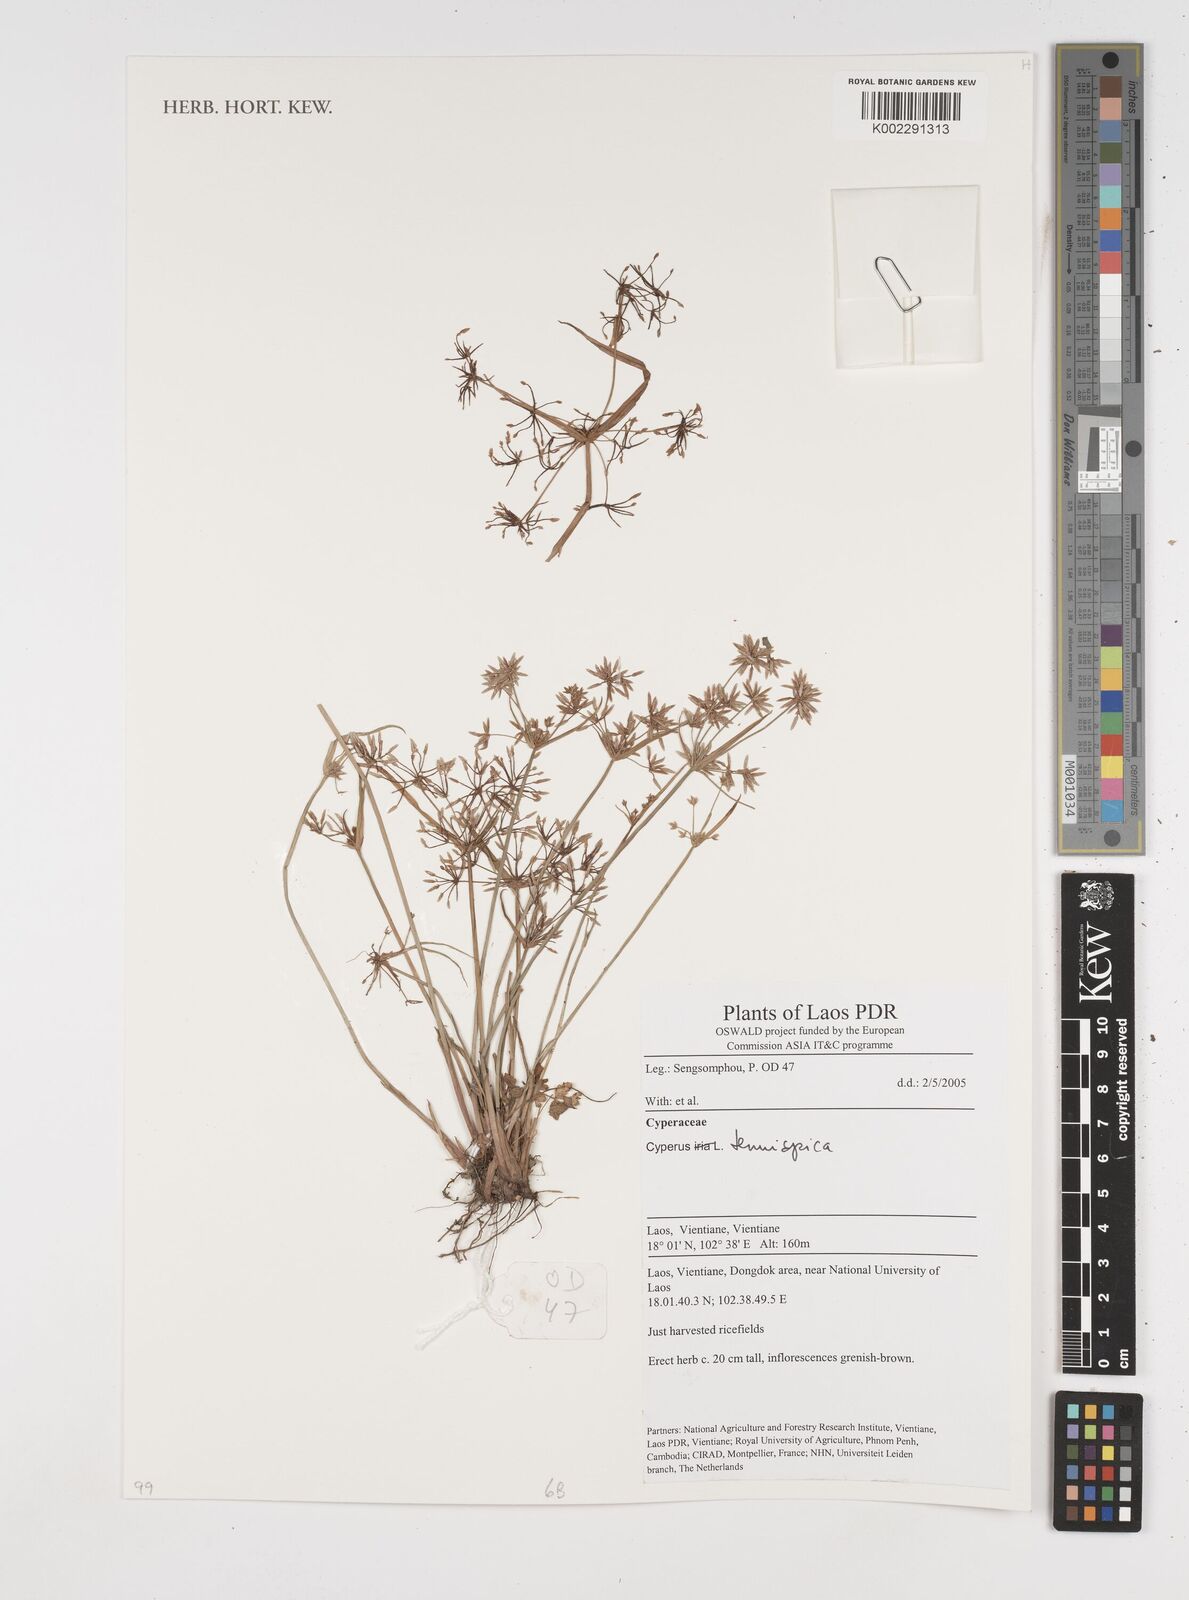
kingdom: Plantae
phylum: Tracheophyta
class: Liliopsida
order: Poales
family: Cyperaceae
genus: Cyperus
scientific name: Cyperus tenuispica
